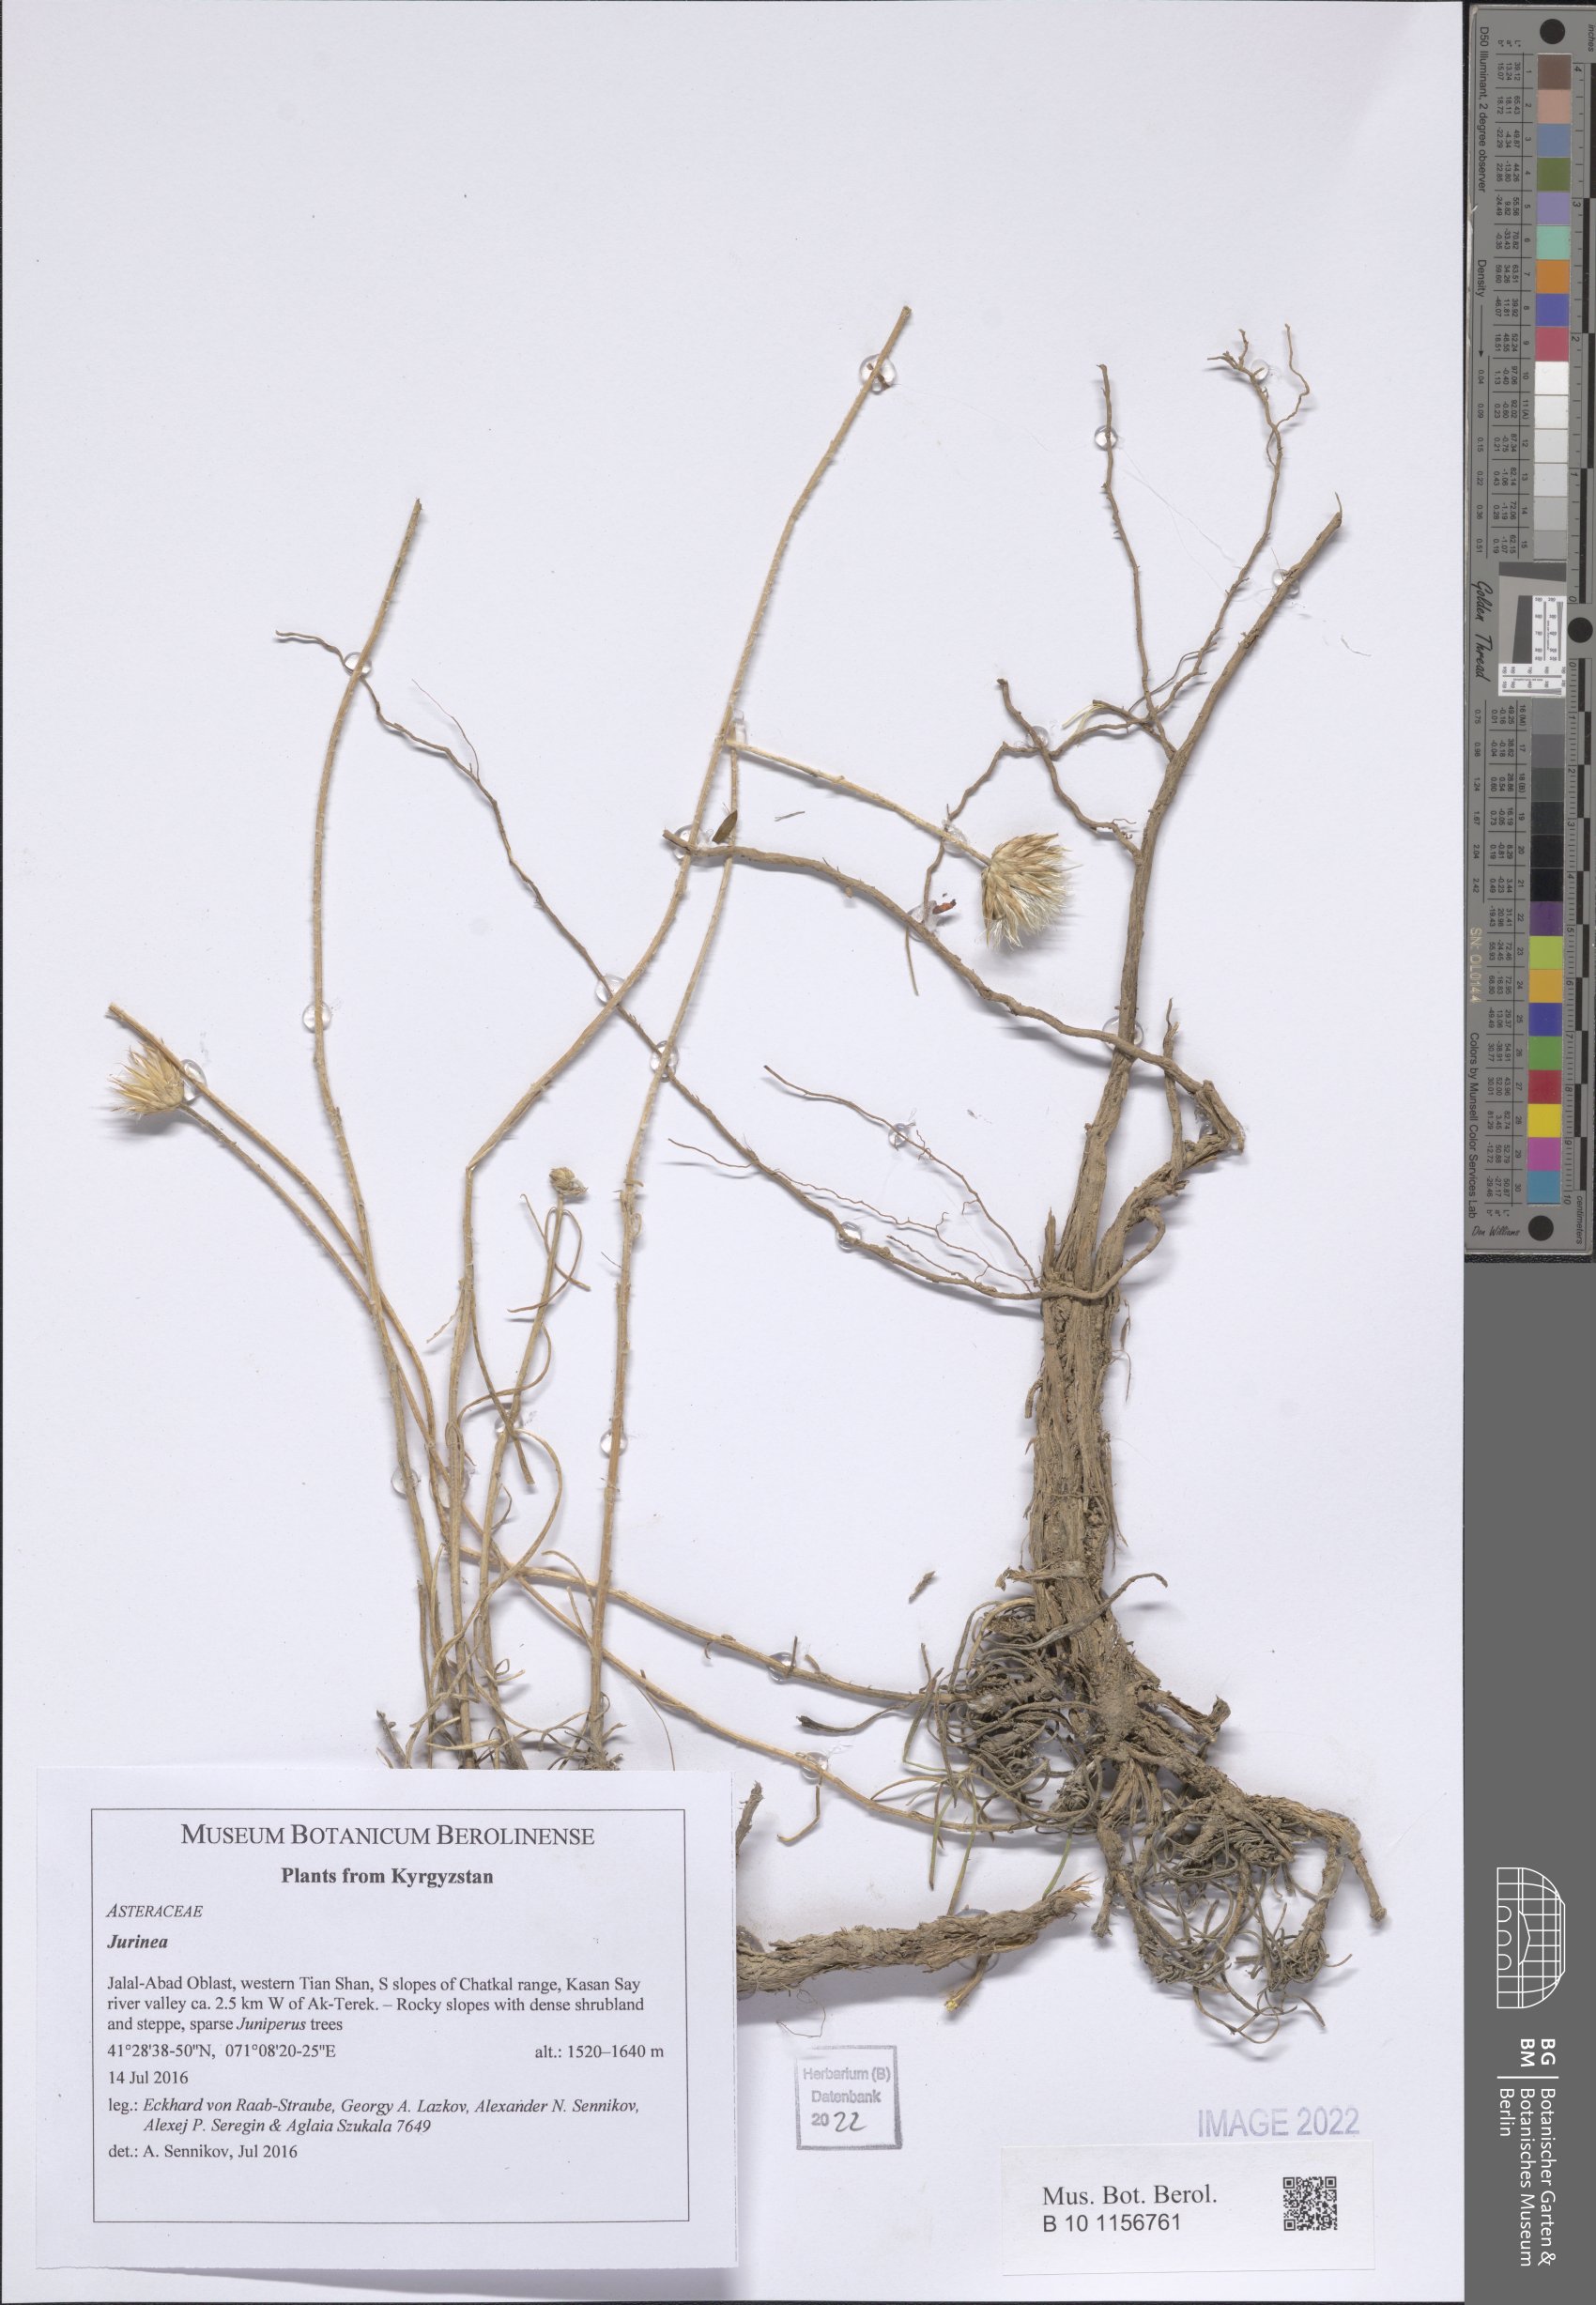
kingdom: Plantae
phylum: Tracheophyta
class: Magnoliopsida
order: Asterales
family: Asteraceae
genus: Jurinea
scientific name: Jurinea
